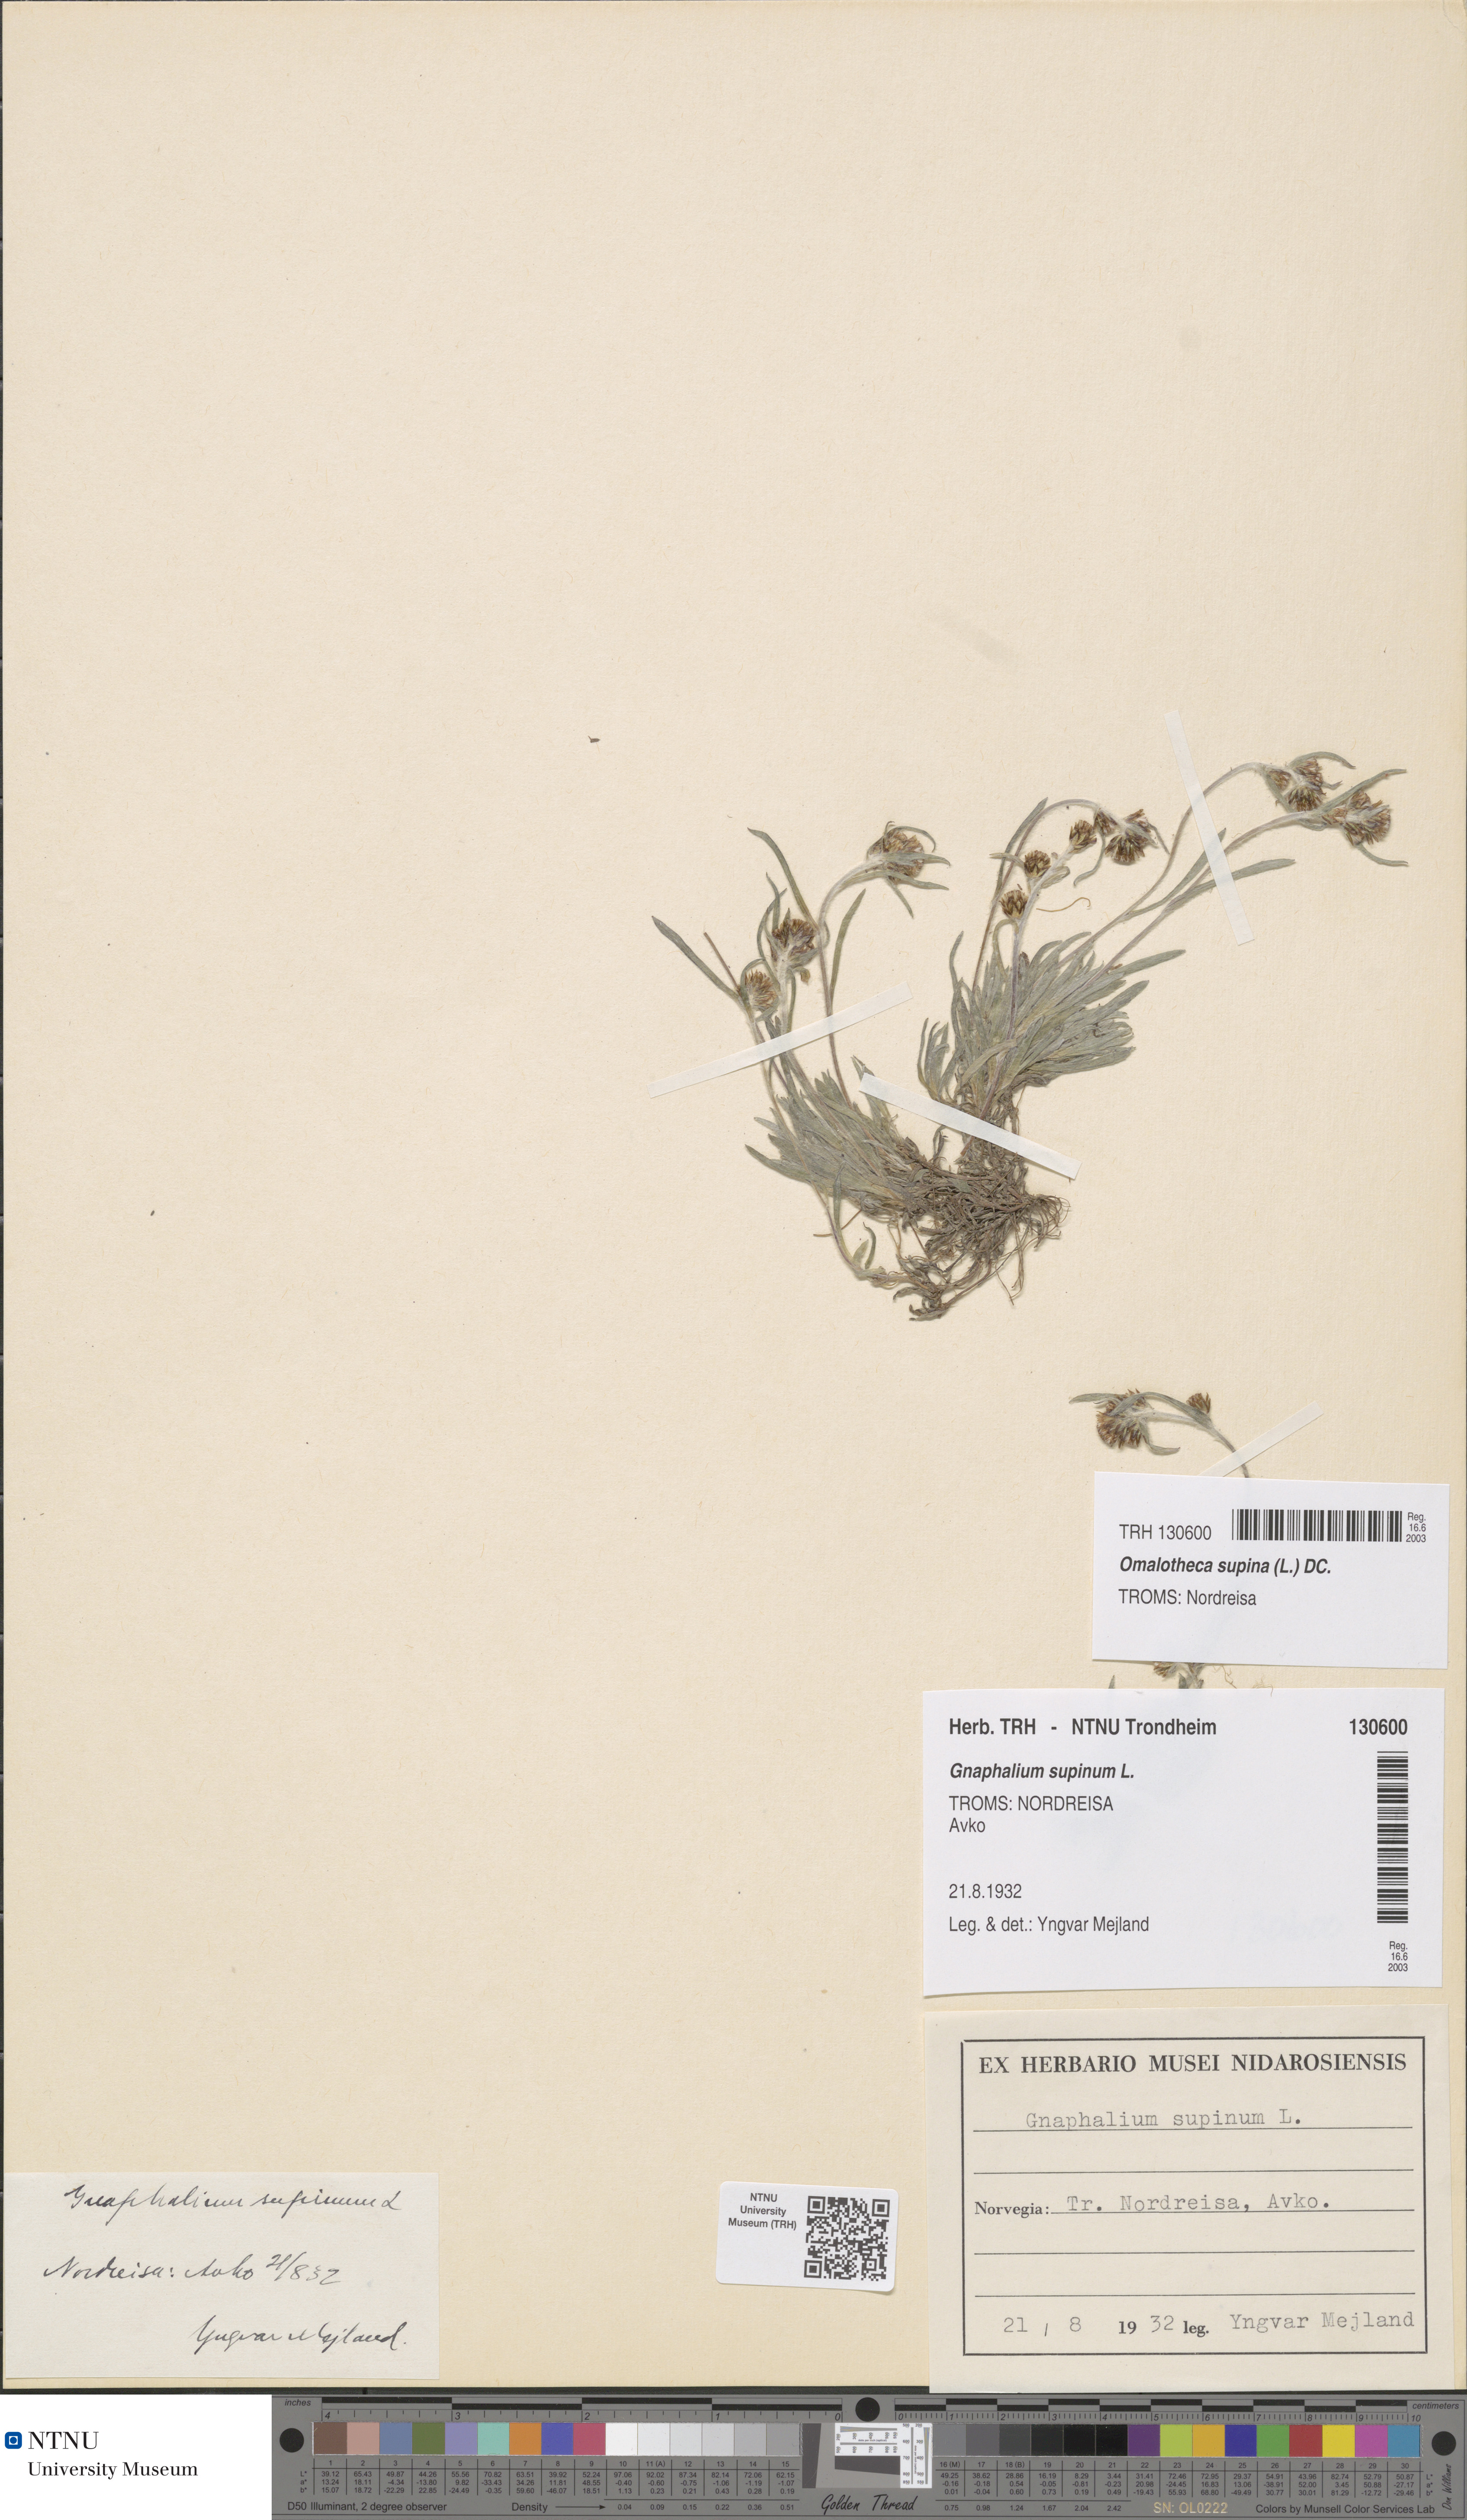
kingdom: Plantae
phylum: Tracheophyta
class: Magnoliopsida
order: Asterales
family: Asteraceae
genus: Omalotheca
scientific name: Omalotheca supina
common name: Alpine arctic-cudweed
